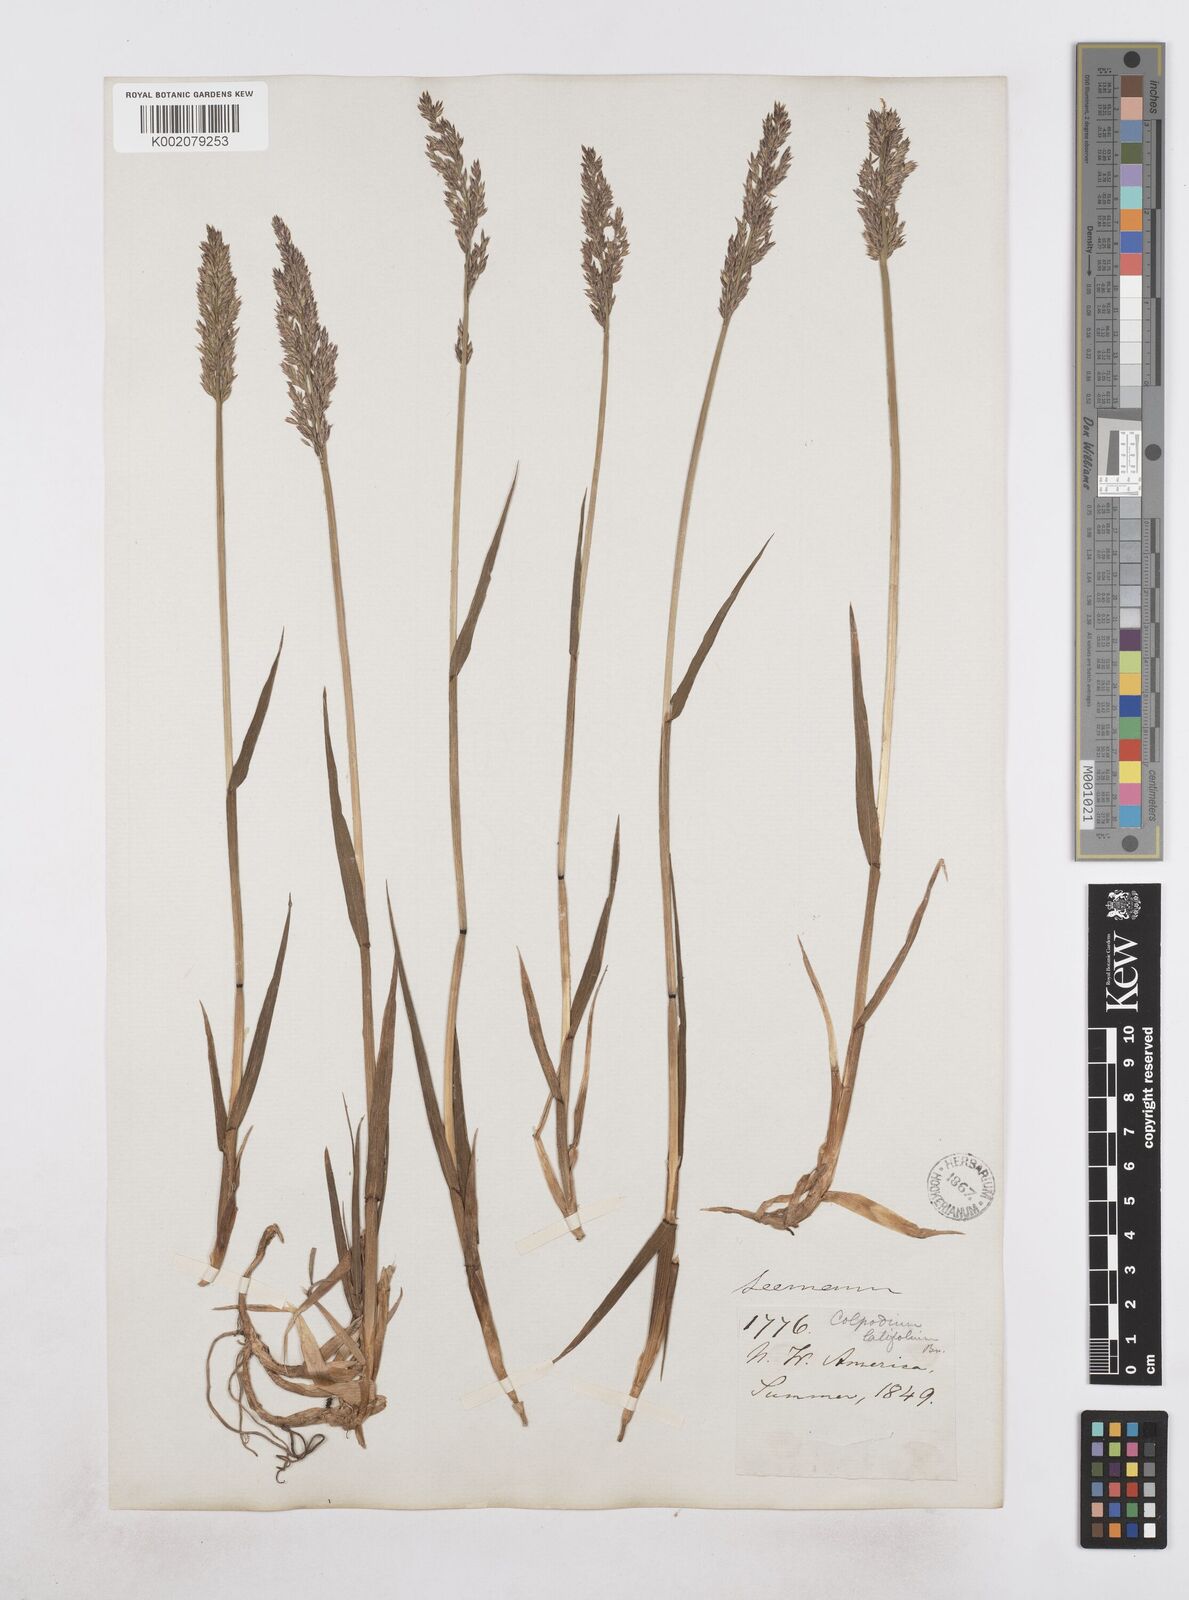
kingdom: Plantae
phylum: Tracheophyta
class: Liliopsida
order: Poales
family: Poaceae
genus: Arctagrostis
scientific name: Arctagrostis latifolia
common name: Arctic grass
